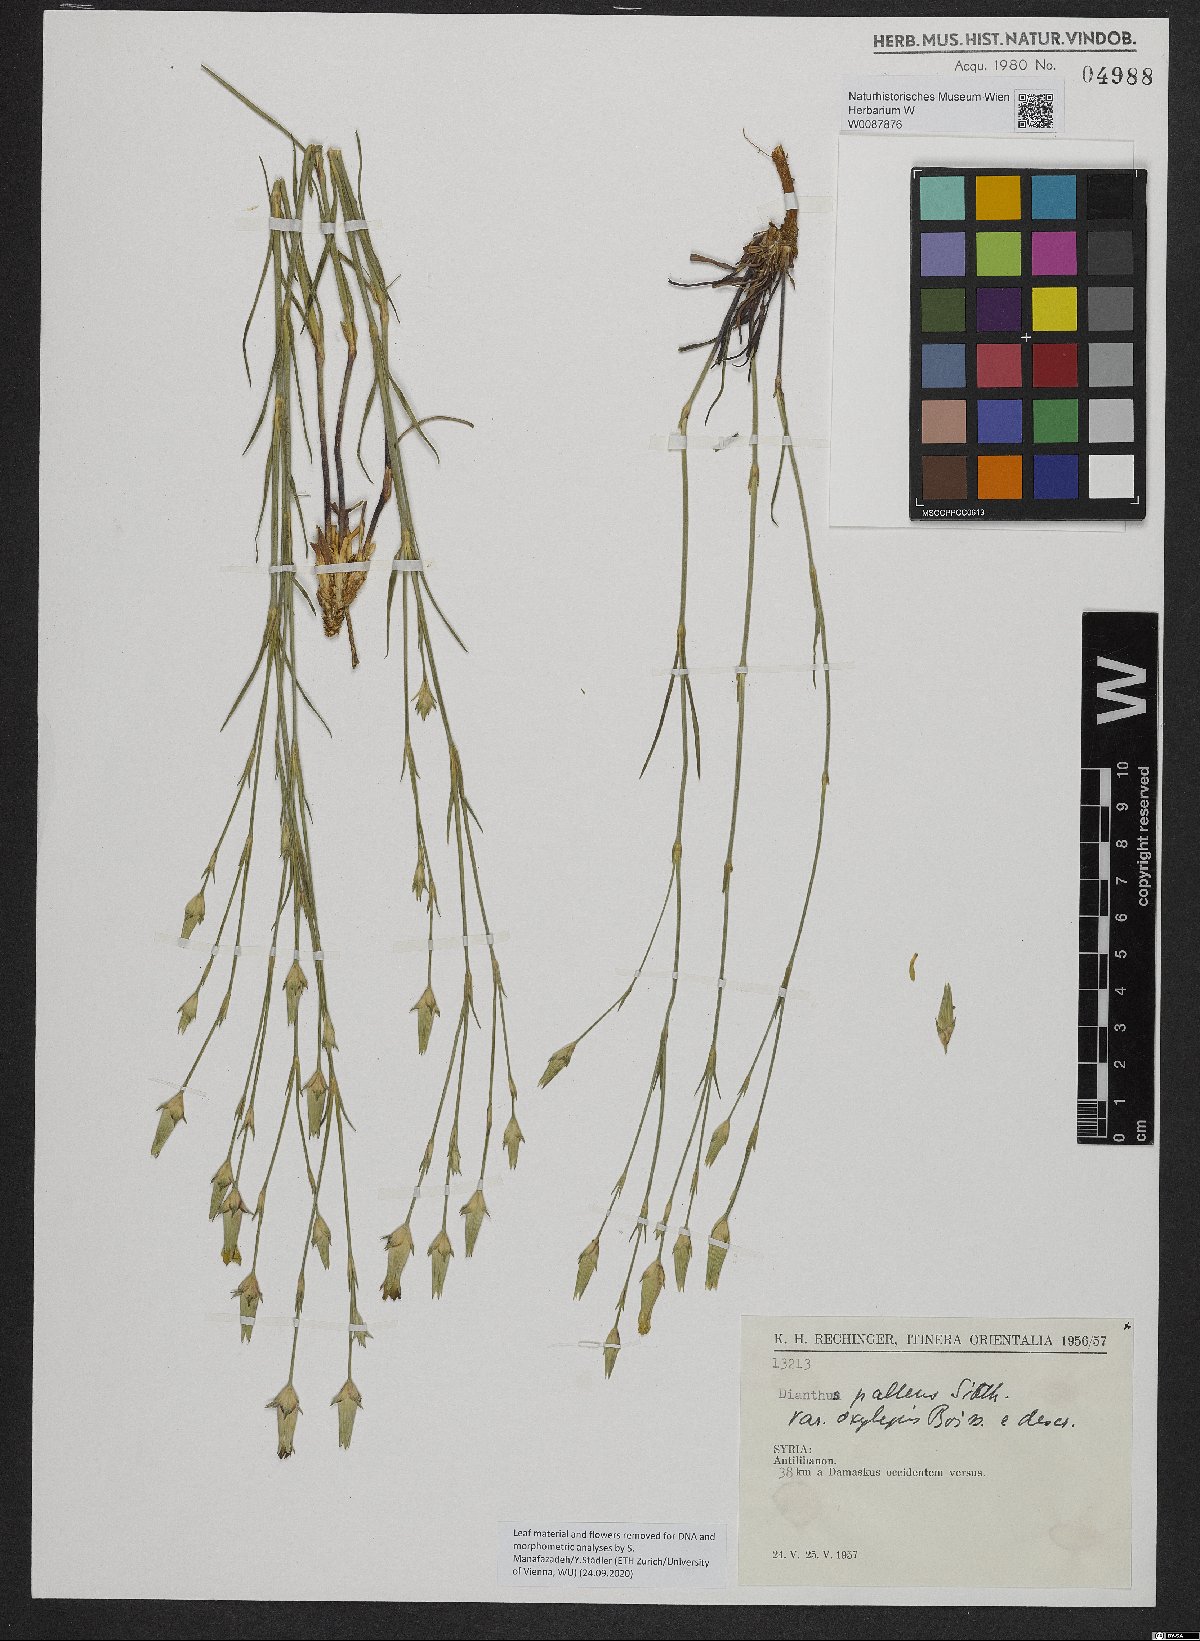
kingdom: Plantae
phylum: Tracheophyta
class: Magnoliopsida
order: Caryophyllales
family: Caryophyllaceae
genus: Dianthus
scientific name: Dianthus monadelphus
